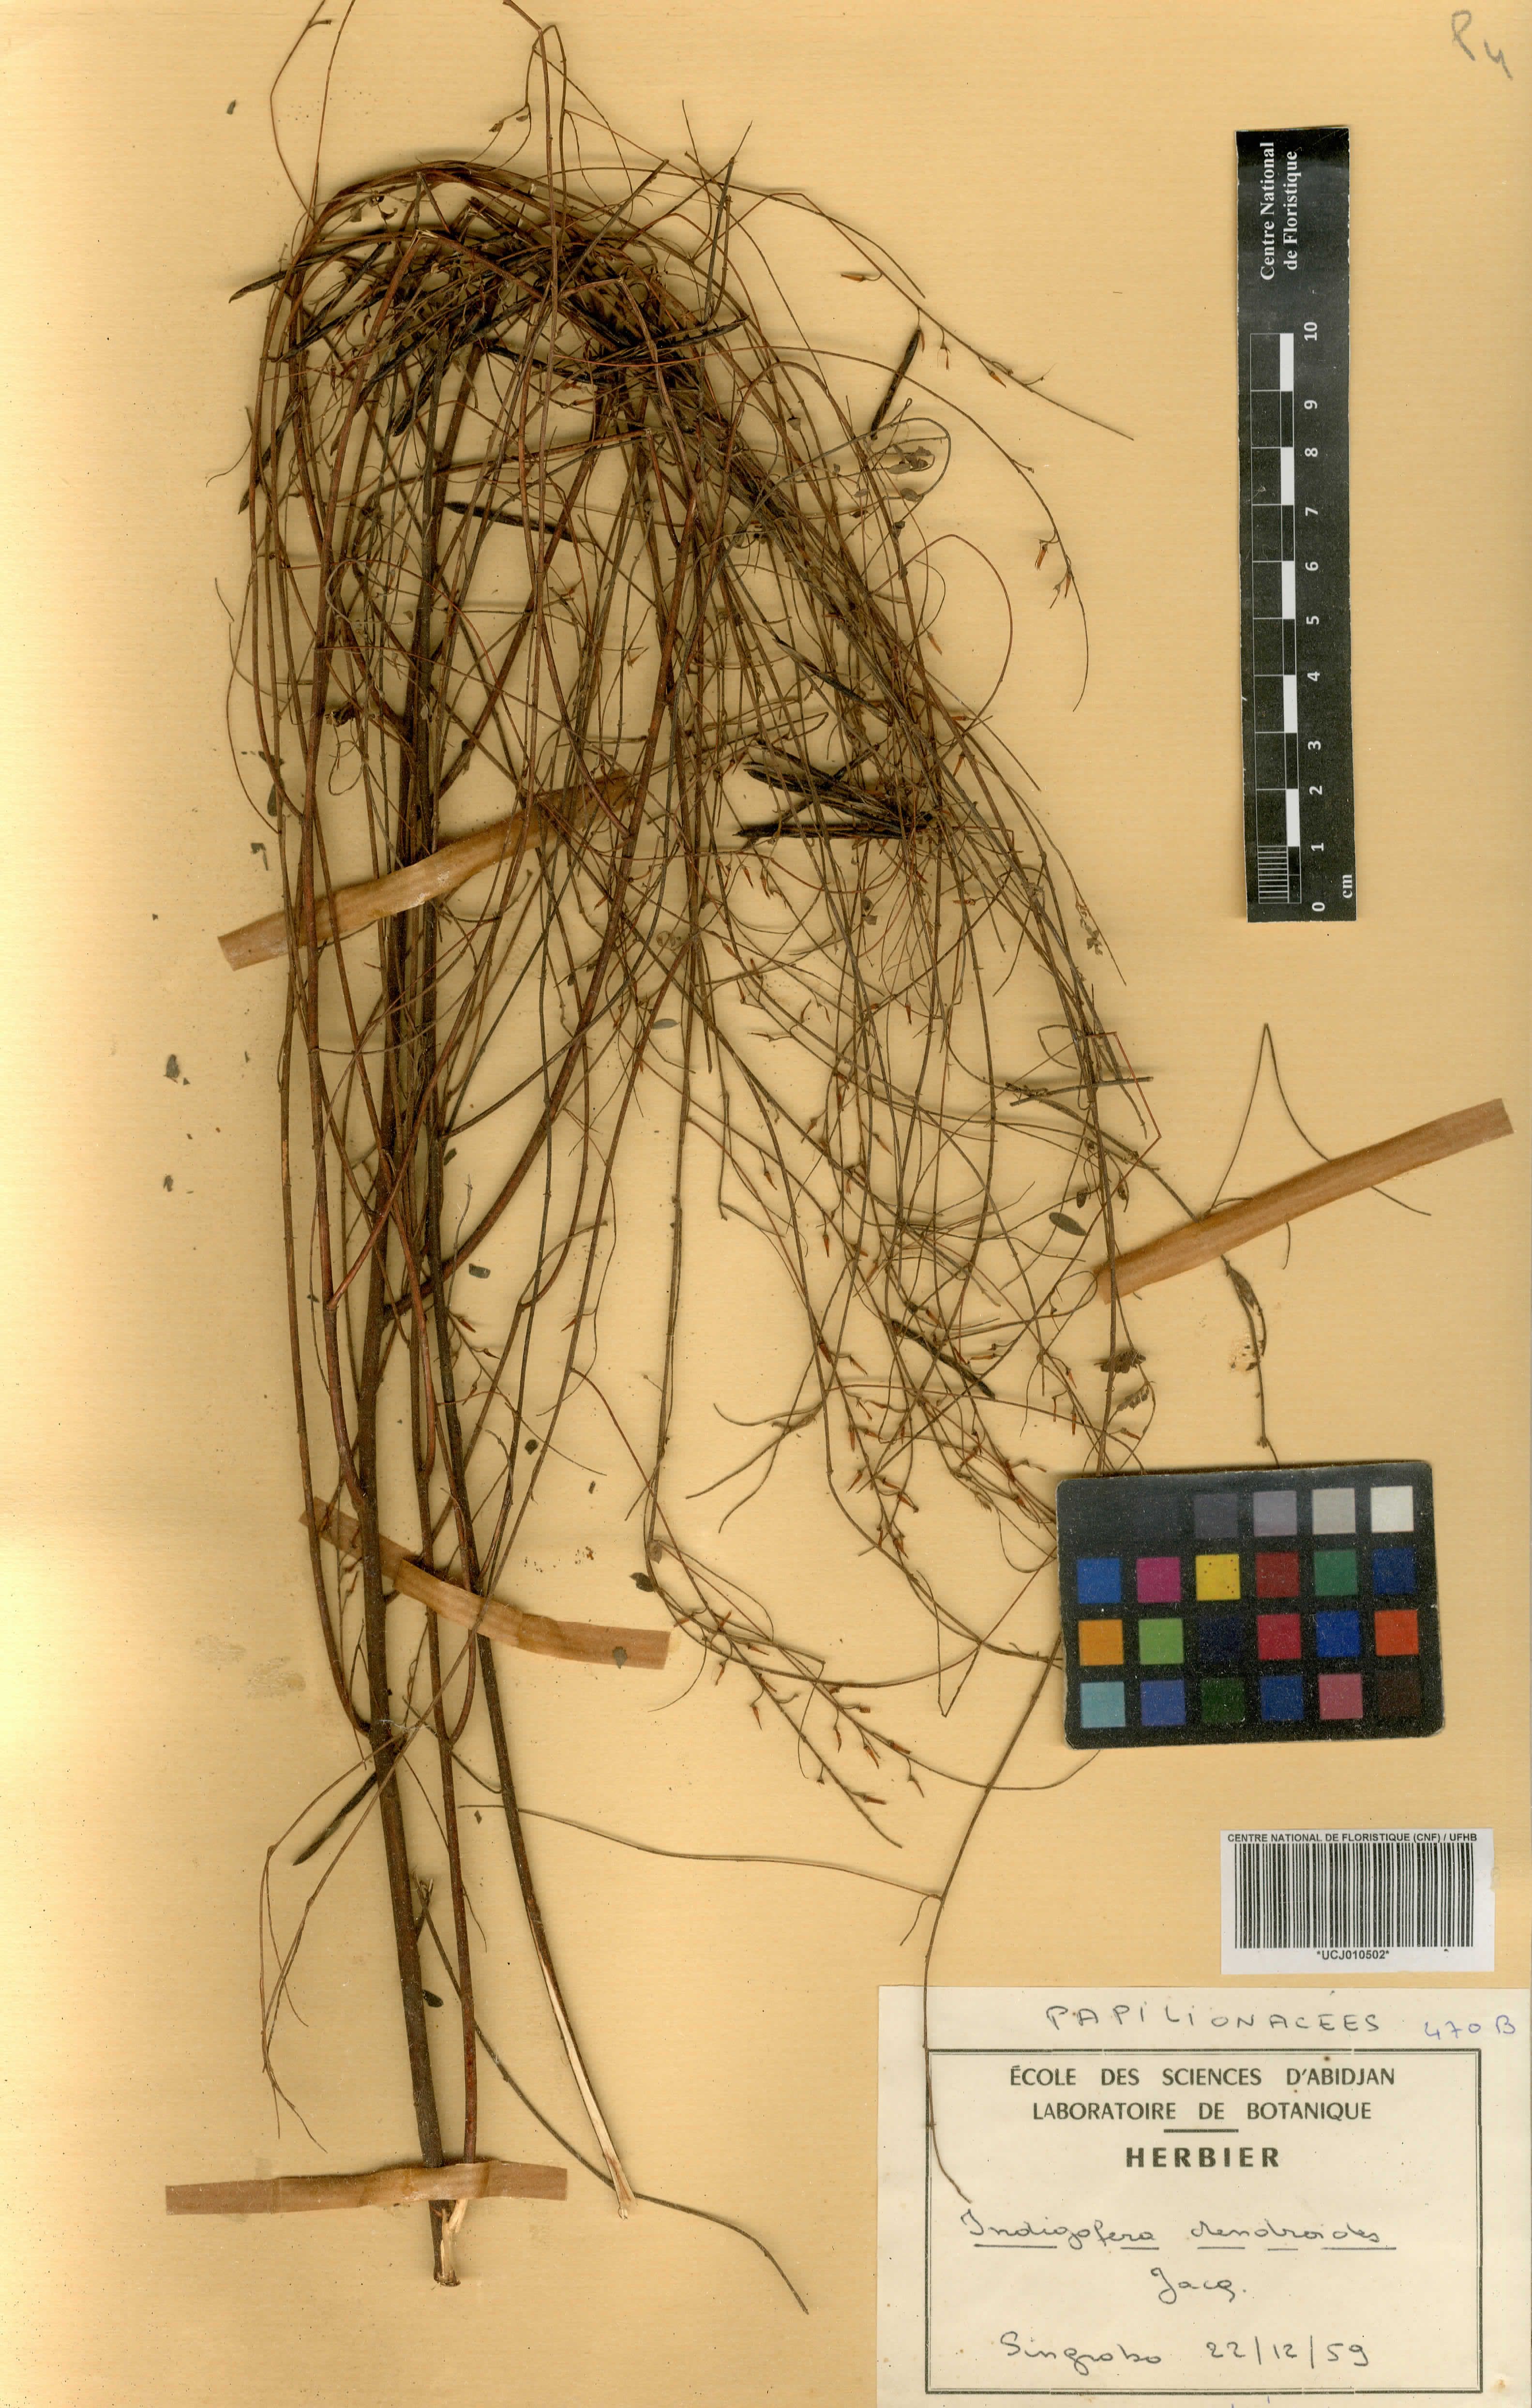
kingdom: Plantae
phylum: Tracheophyta
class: Magnoliopsida
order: Fabales
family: Fabaceae
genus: Indigofera
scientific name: Indigofera dendroides
